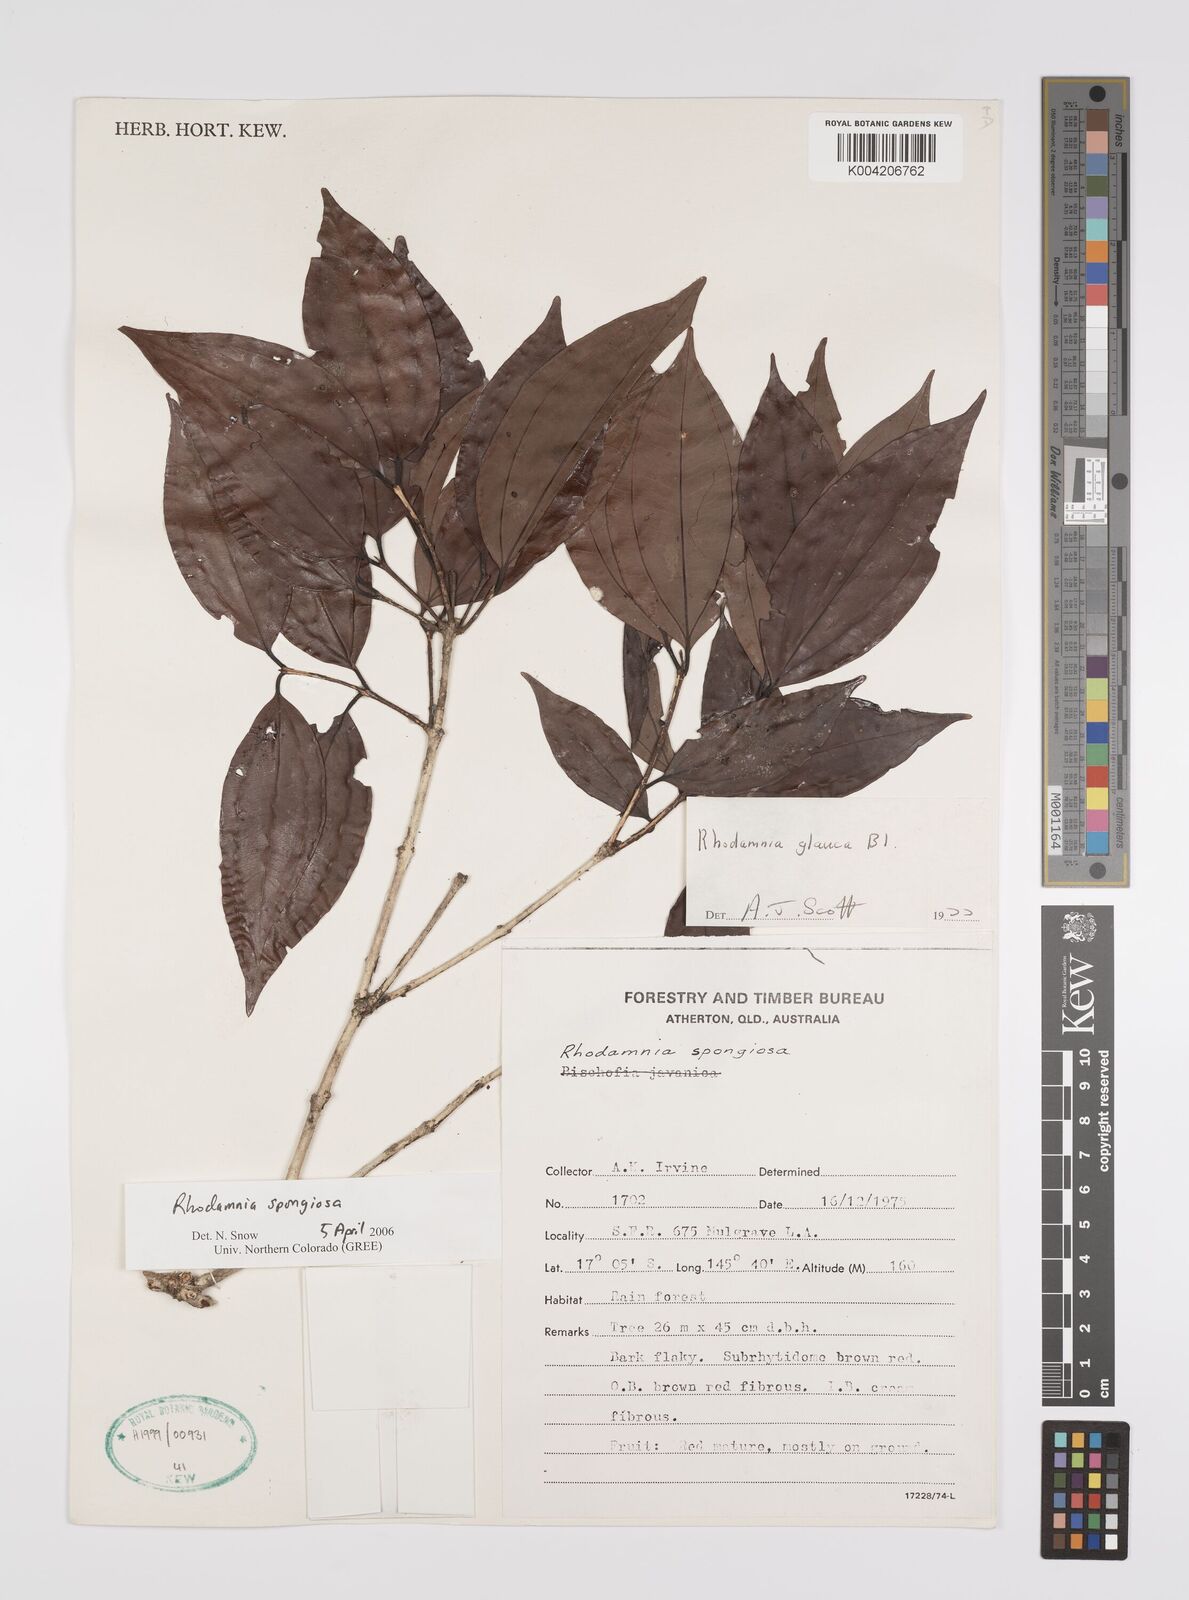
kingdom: Plantae
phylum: Tracheophyta
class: Magnoliopsida
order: Myrtales
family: Myrtaceae
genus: Rhodamnia
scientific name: Rhodamnia glauca
